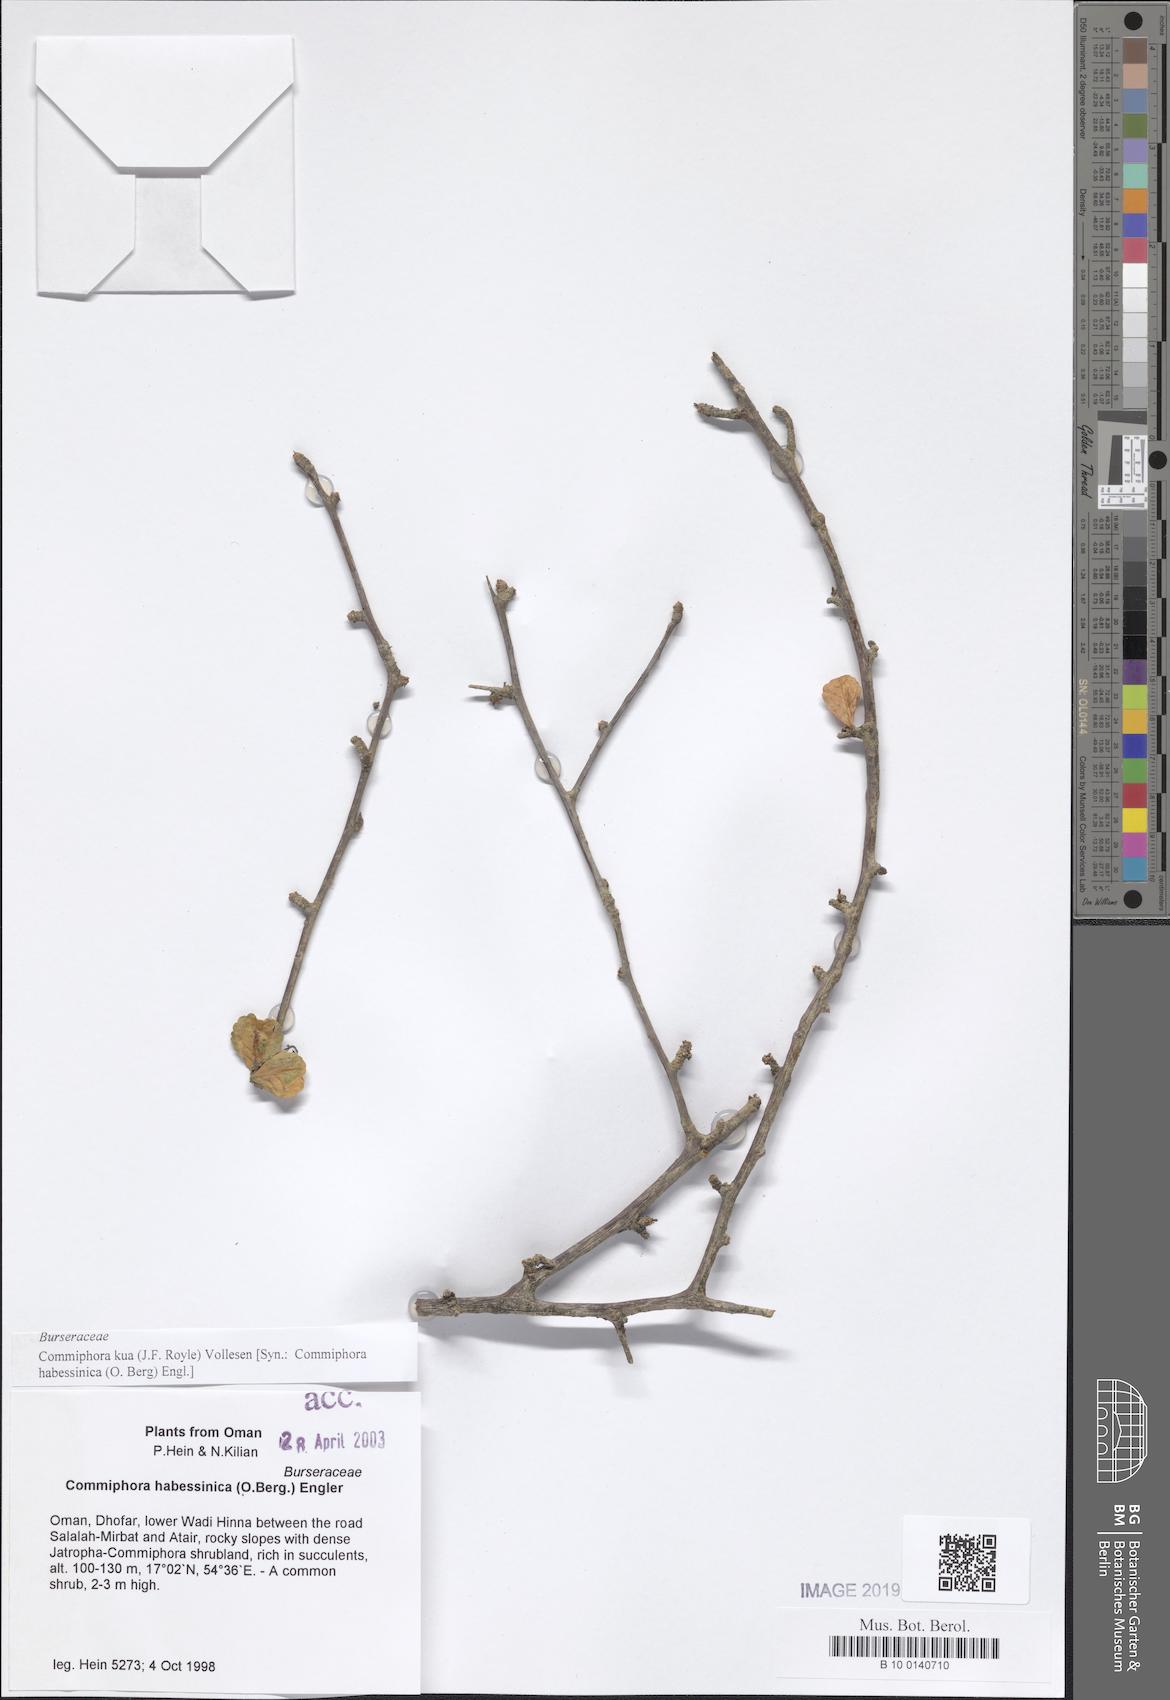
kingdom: Plantae
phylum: Tracheophyta
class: Magnoliopsida
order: Sapindales
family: Burseraceae
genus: Commiphora
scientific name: Commiphora kua
